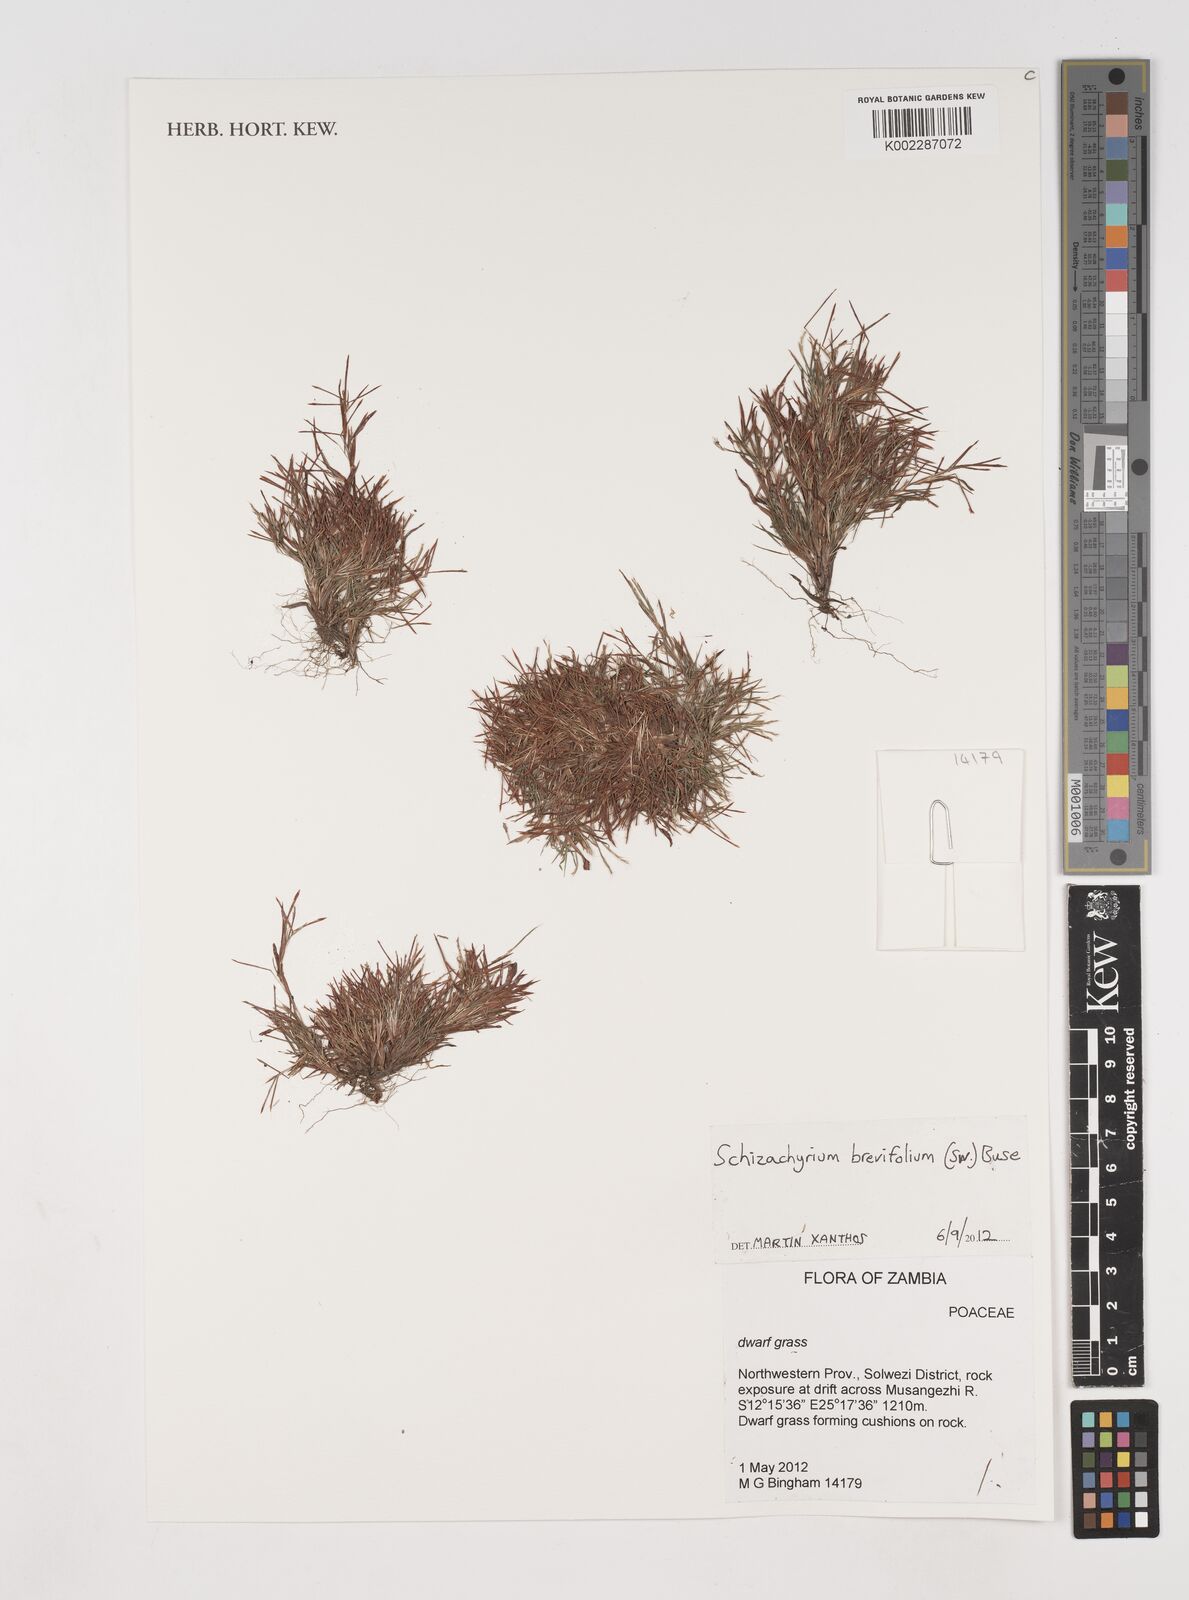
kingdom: Plantae
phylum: Tracheophyta
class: Liliopsida
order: Poales
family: Poaceae
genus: Schizachyrium
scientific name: Schizachyrium brevifolium
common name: Serillo dulce
